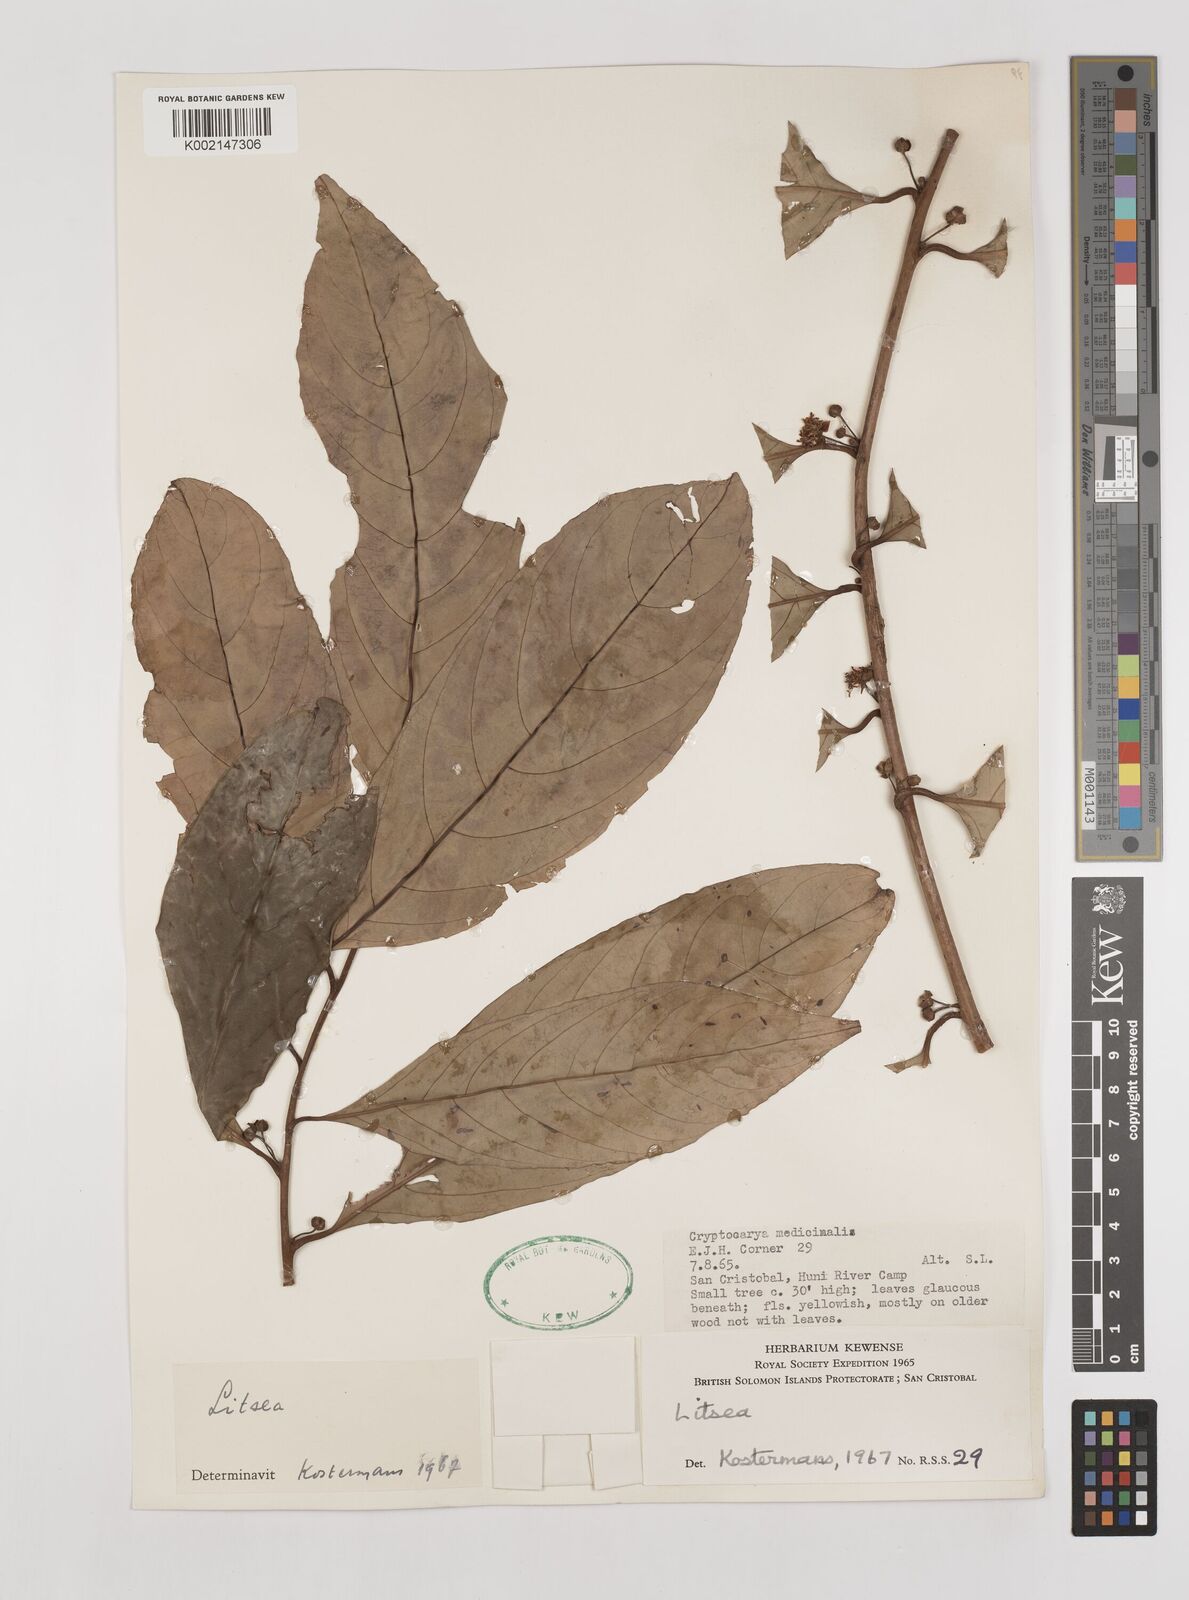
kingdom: Plantae
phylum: Tracheophyta
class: Magnoliopsida
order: Laurales
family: Lauraceae
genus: Litsea
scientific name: Litsea timoriana
